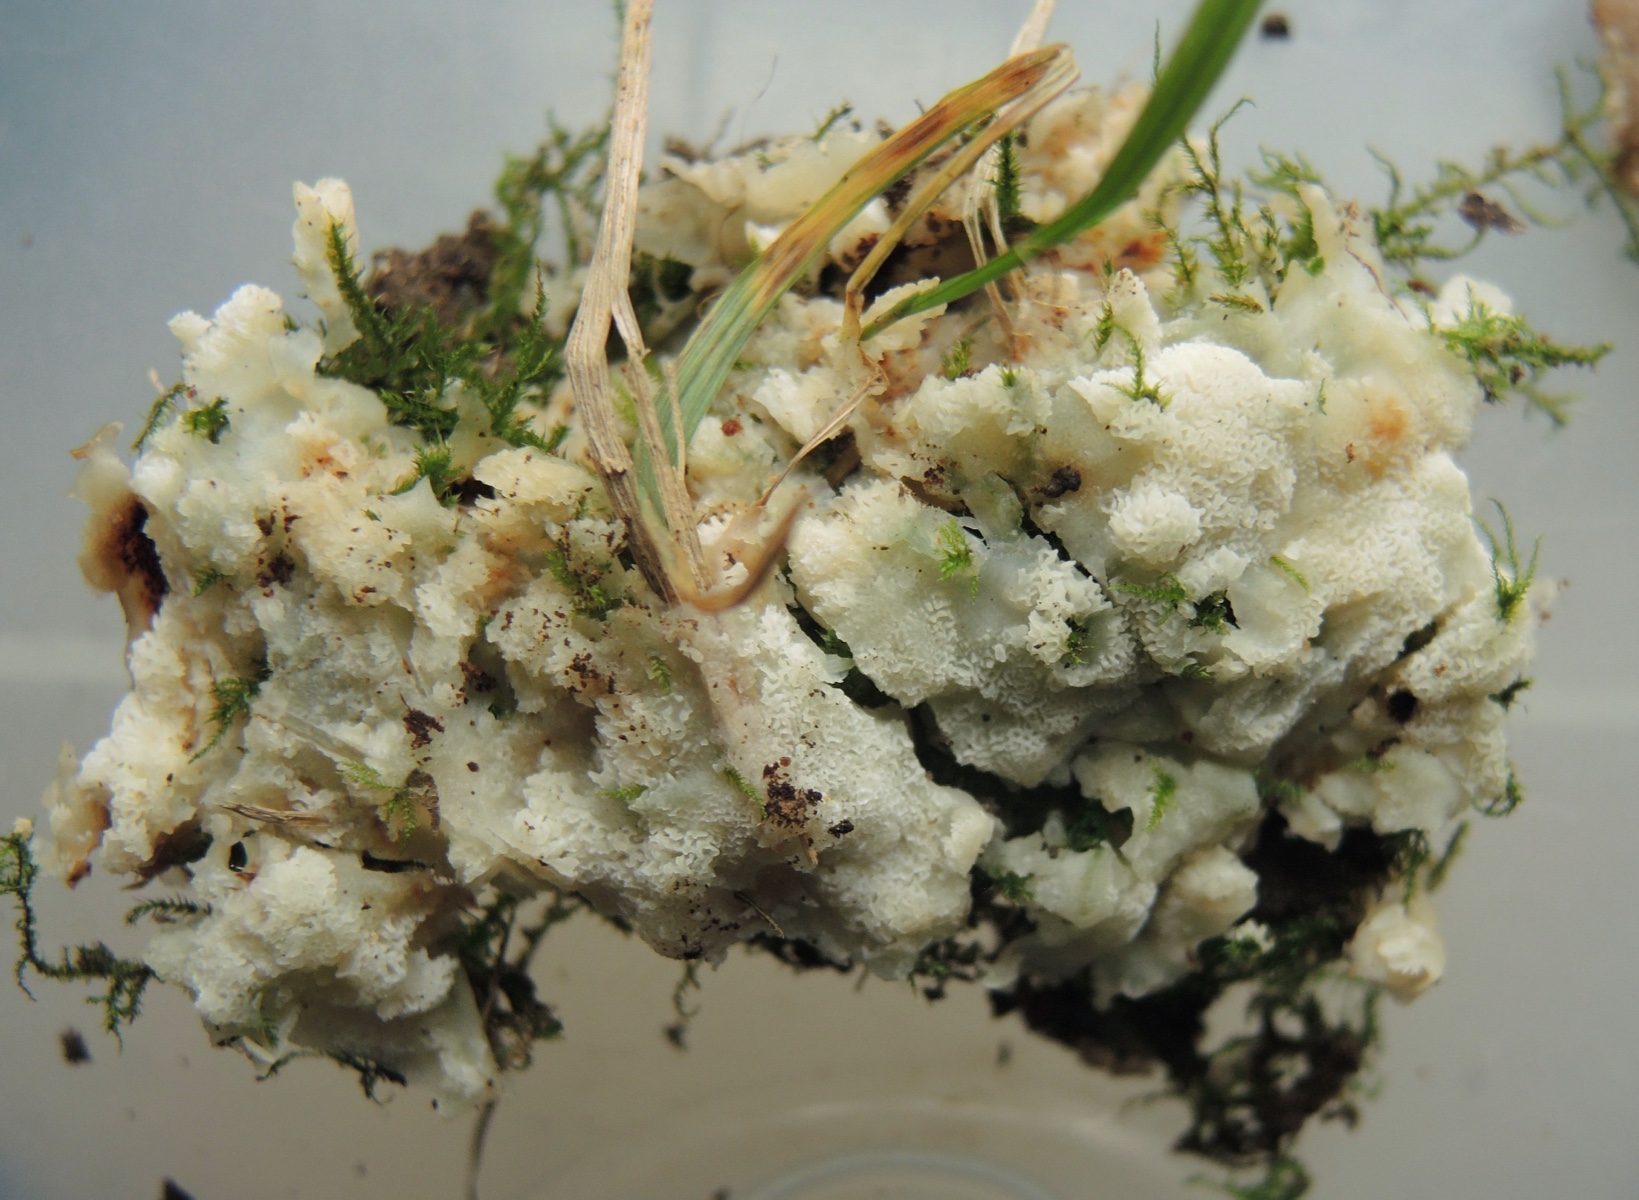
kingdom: Fungi
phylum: Basidiomycota
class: Agaricomycetes
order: Polyporales
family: Meruliaceae
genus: Physisporinus
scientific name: Physisporinus vitreus
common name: mastesvamp
